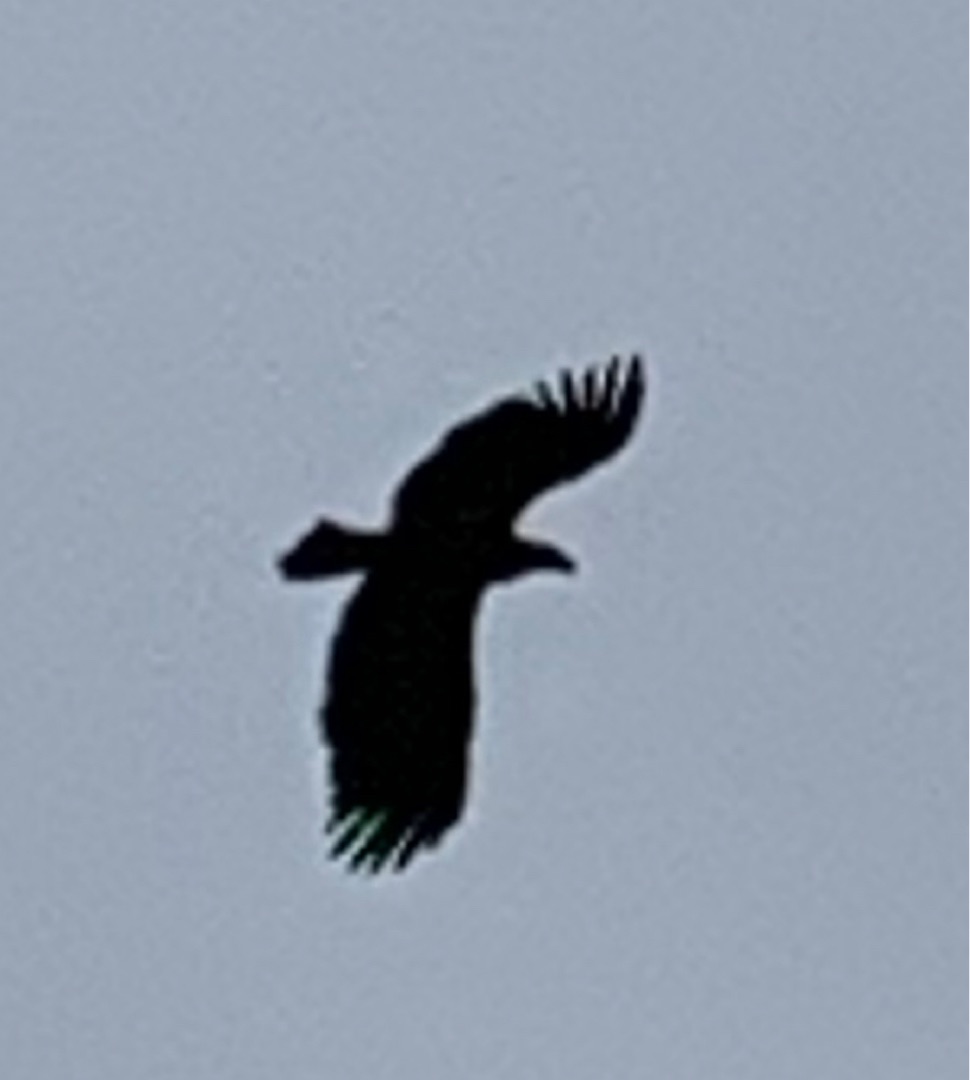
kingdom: Animalia
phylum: Chordata
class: Aves
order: Accipitriformes
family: Accipitridae
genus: Haliaeetus
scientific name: Haliaeetus albicilla
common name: Havørn
